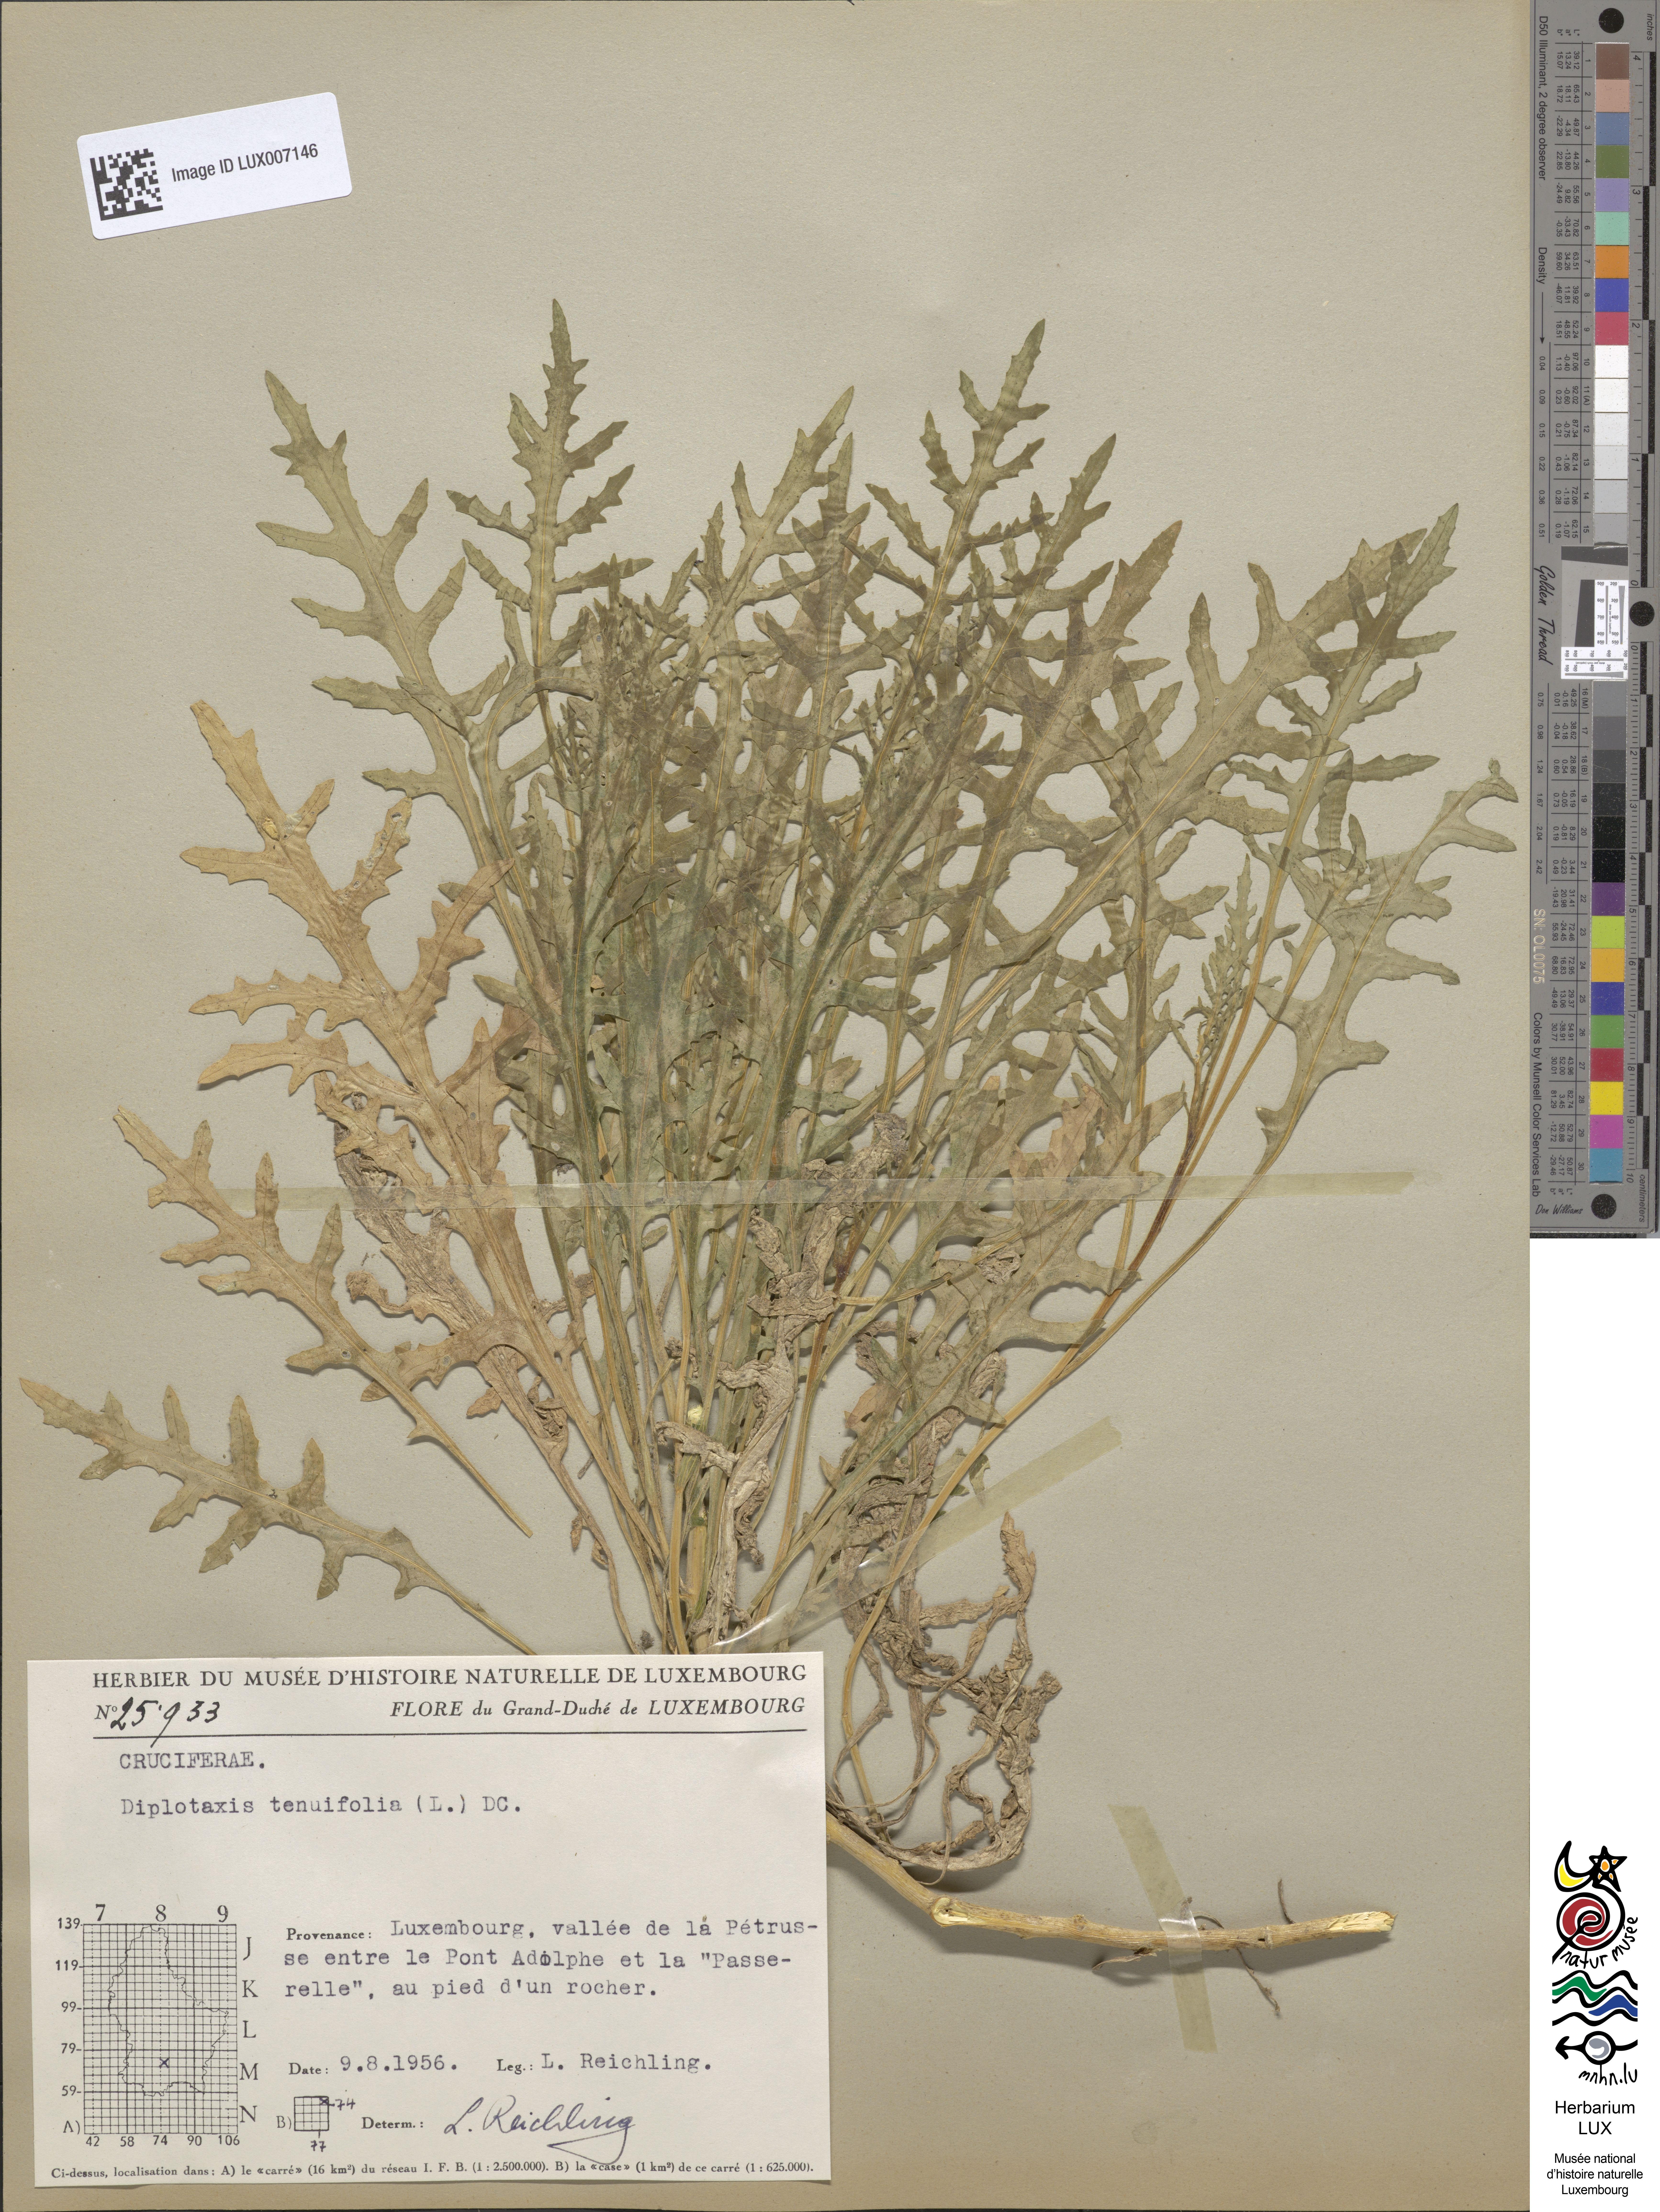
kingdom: Plantae
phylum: Tracheophyta
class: Magnoliopsida
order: Brassicales
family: Brassicaceae
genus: Diplotaxis
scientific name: Diplotaxis tenuifolia
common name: Perennial wall-rocket
